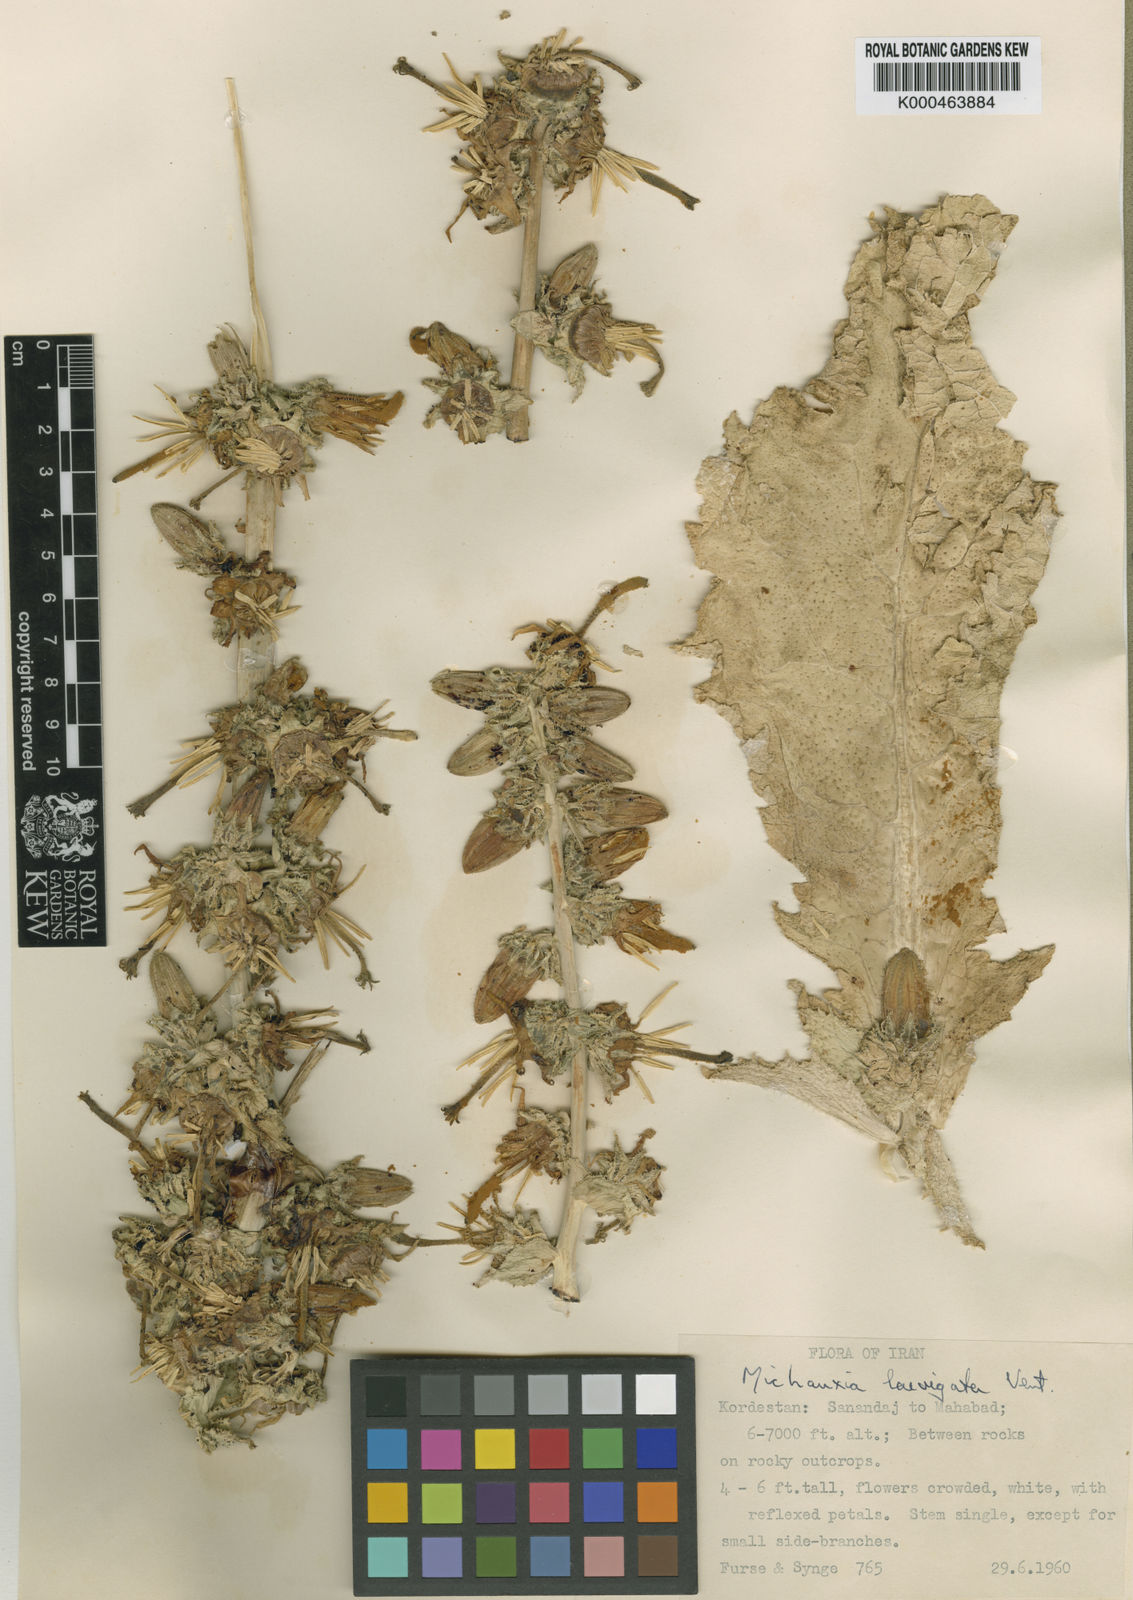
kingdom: Plantae
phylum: Tracheophyta
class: Magnoliopsida
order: Asterales
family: Campanulaceae
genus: Michauxia
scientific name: Michauxia laevigata
